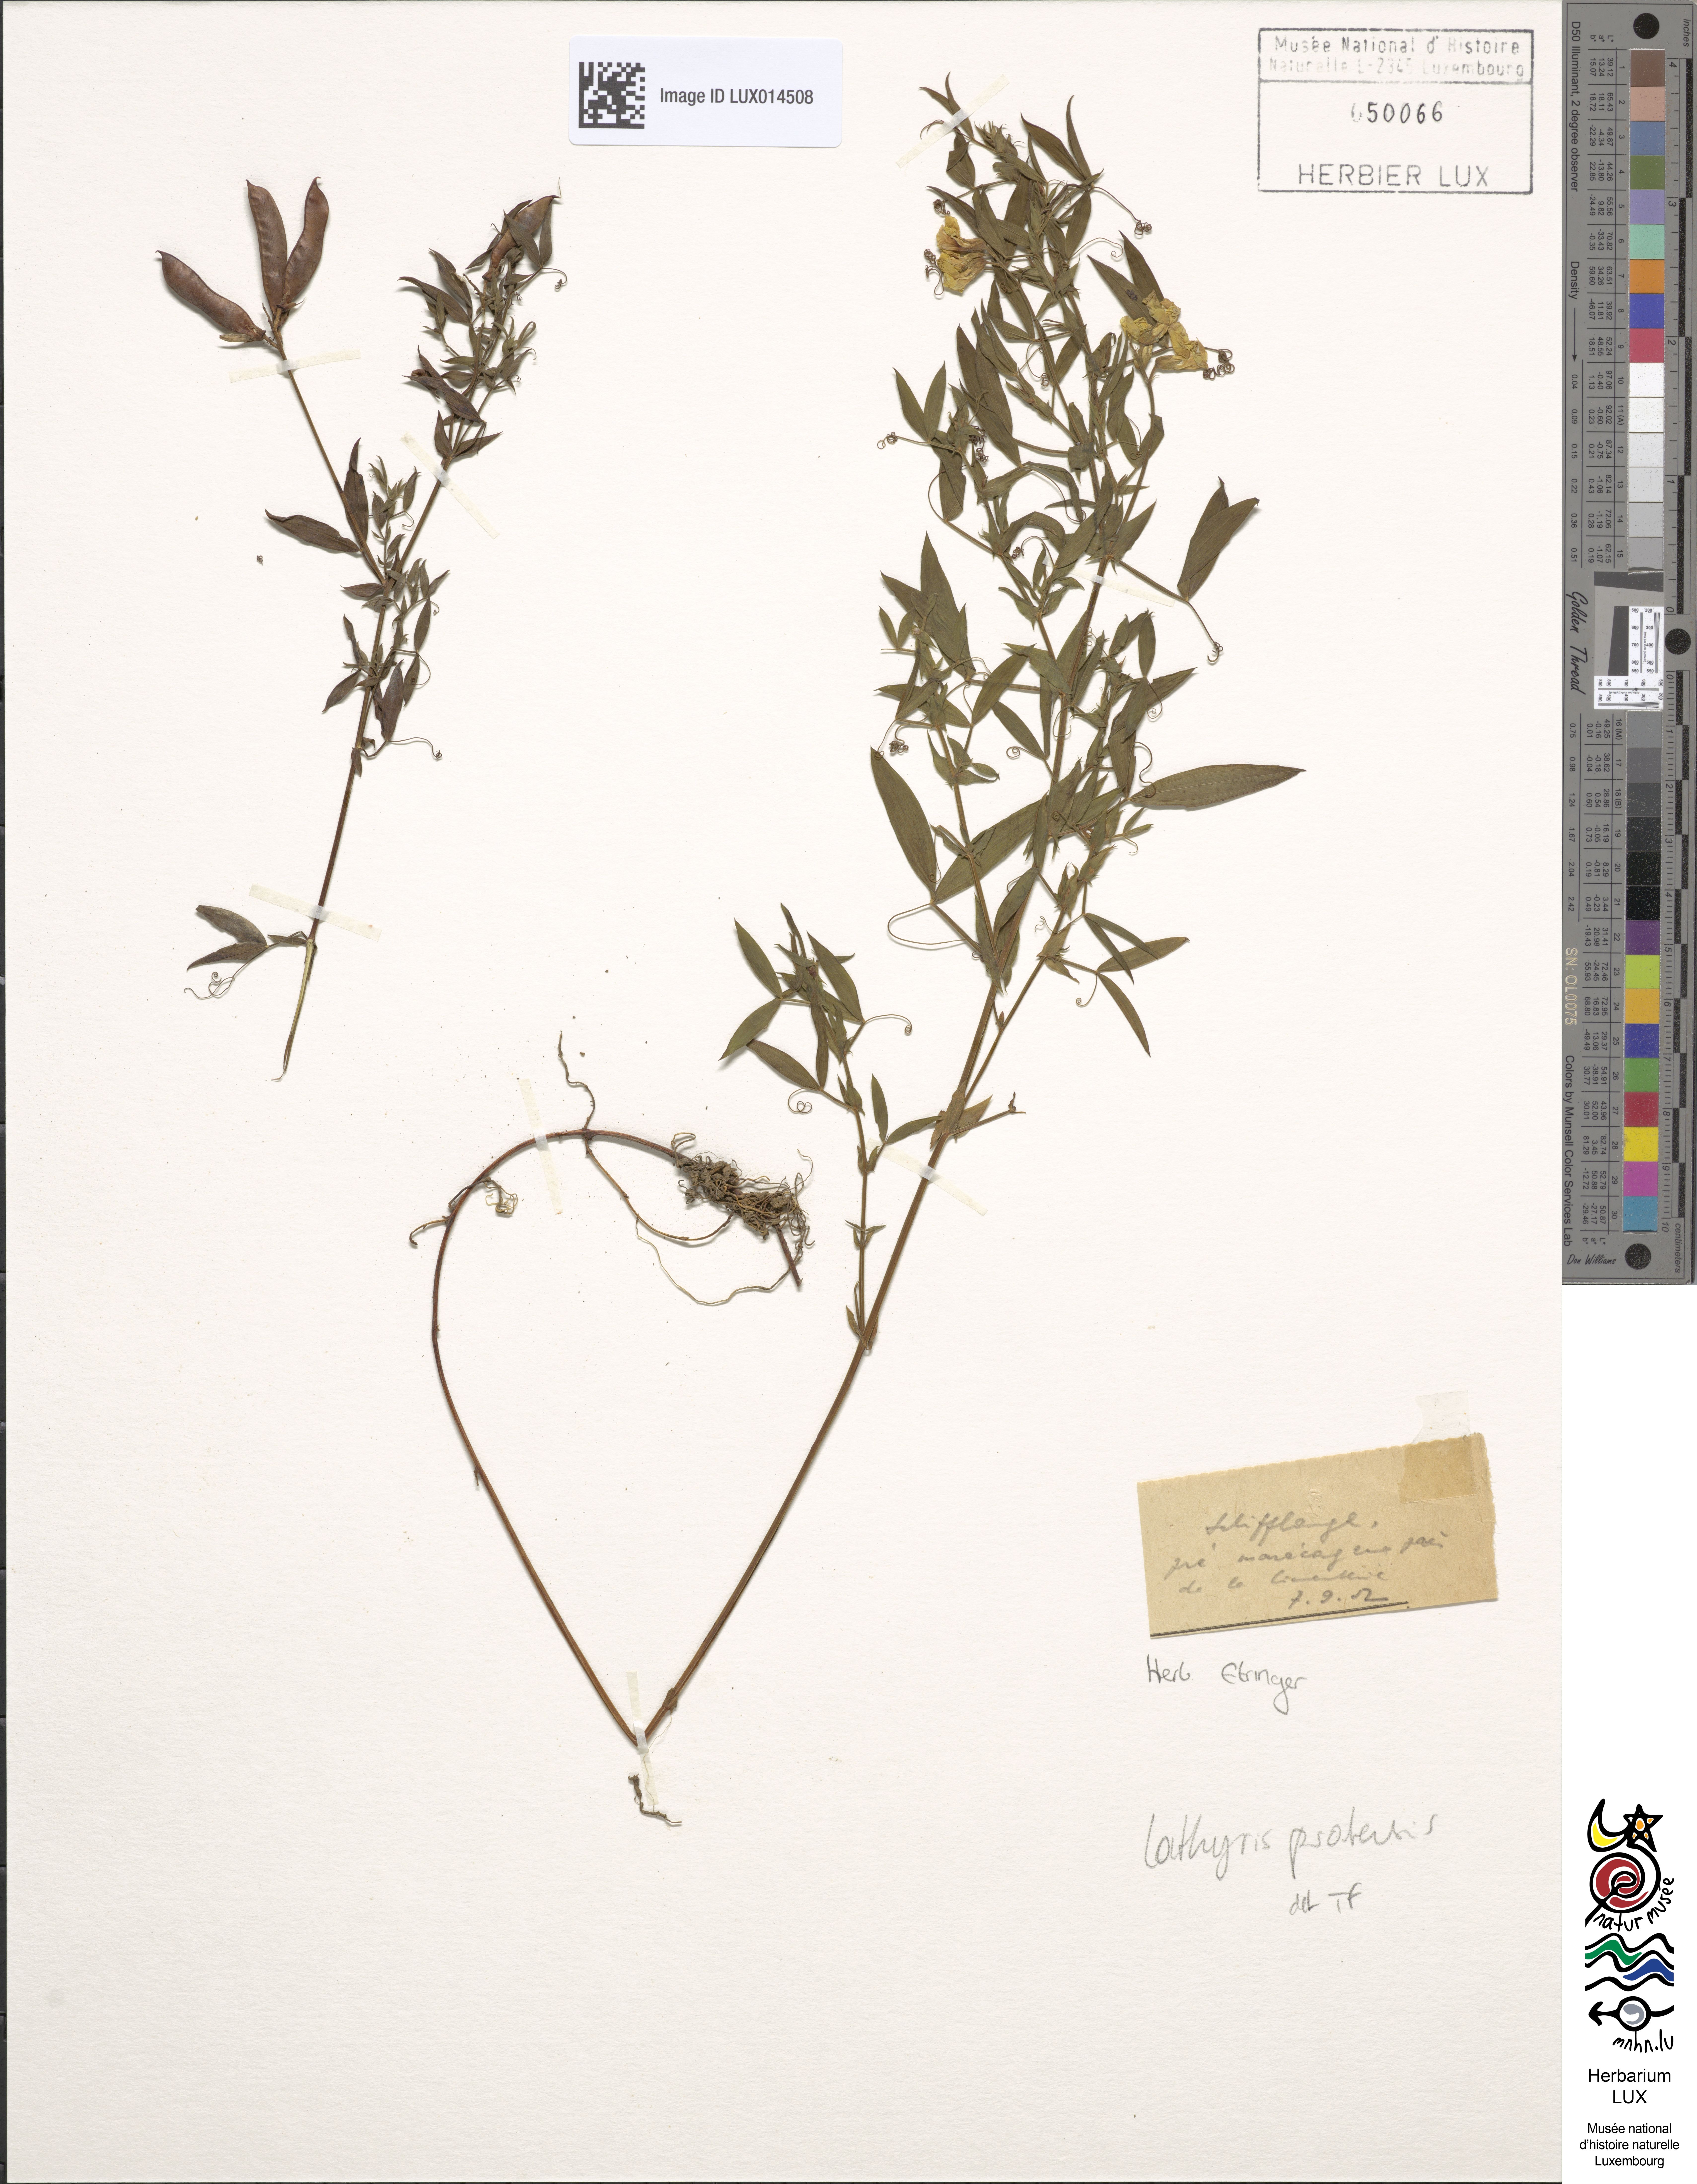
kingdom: Plantae
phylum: Tracheophyta
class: Magnoliopsida
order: Fabales
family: Fabaceae
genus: Lathyrus
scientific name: Lathyrus pratensis
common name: Meadow vetchling
